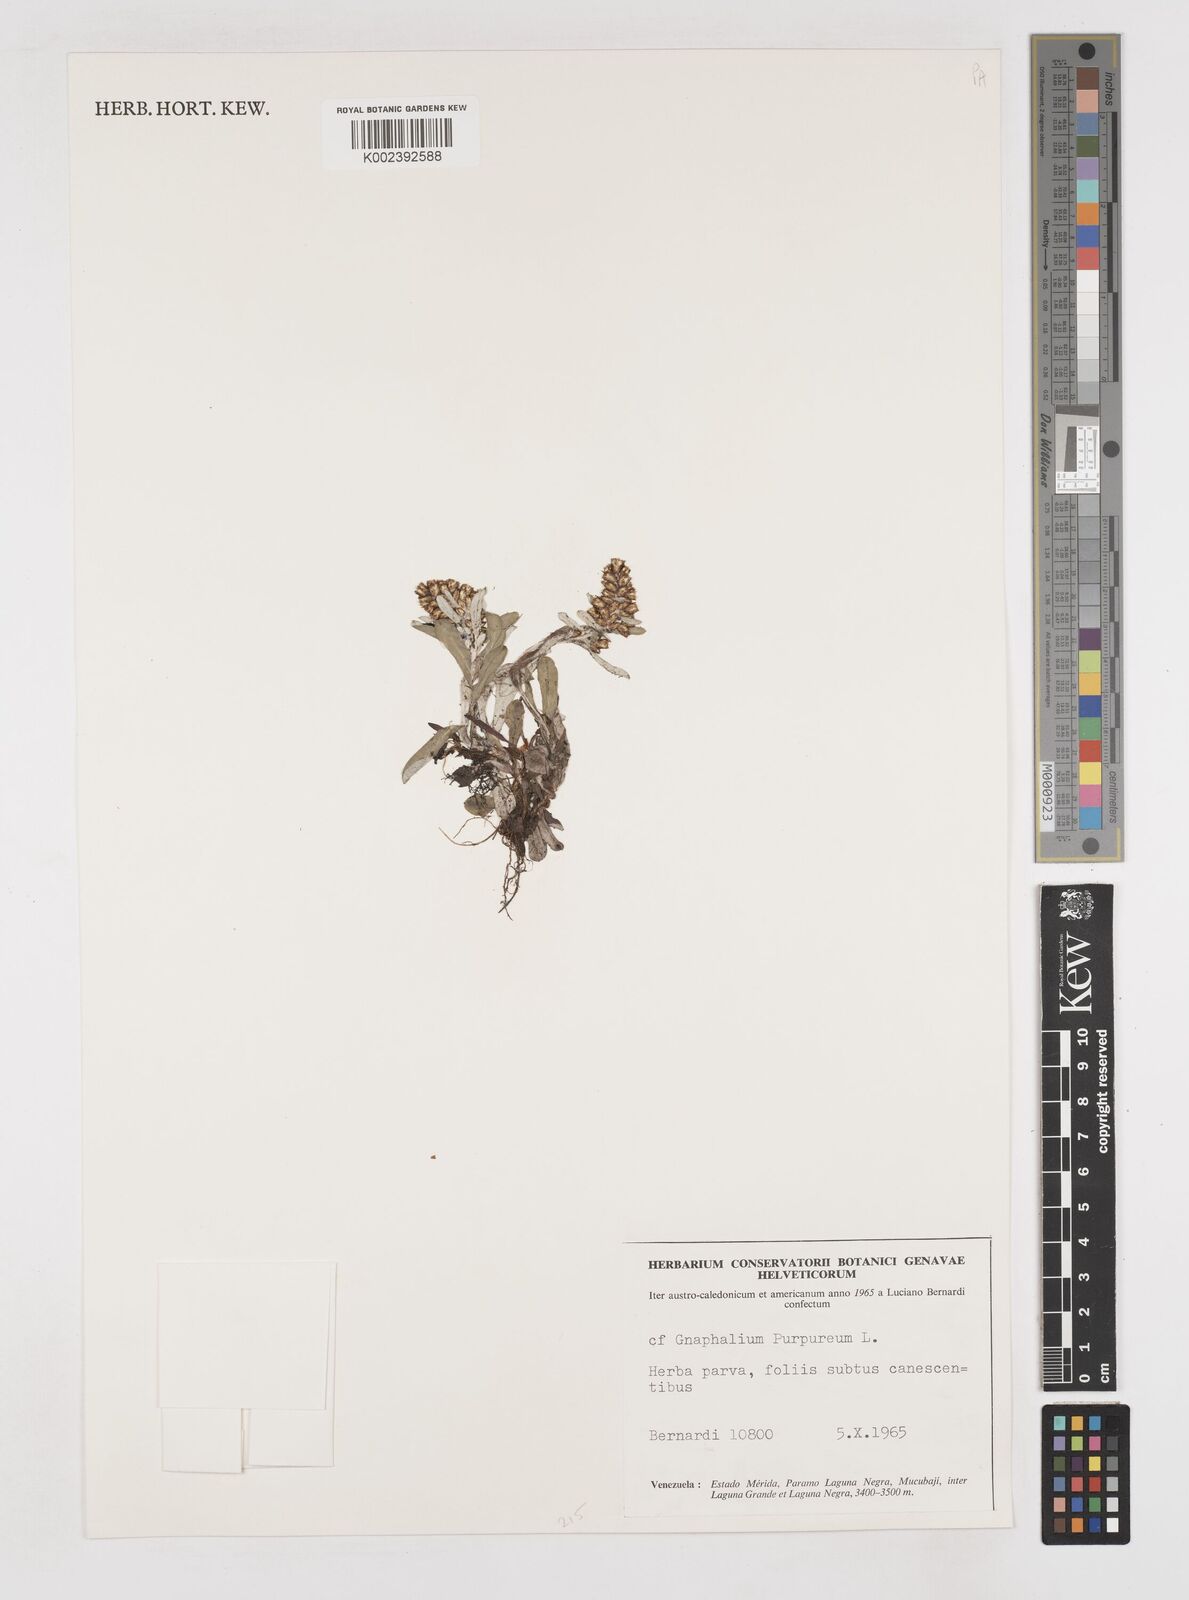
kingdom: Plantae
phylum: Tracheophyta
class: Magnoliopsida
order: Asterales
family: Asteraceae
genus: Pseudognaphalium
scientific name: Pseudognaphalium purpurascens
